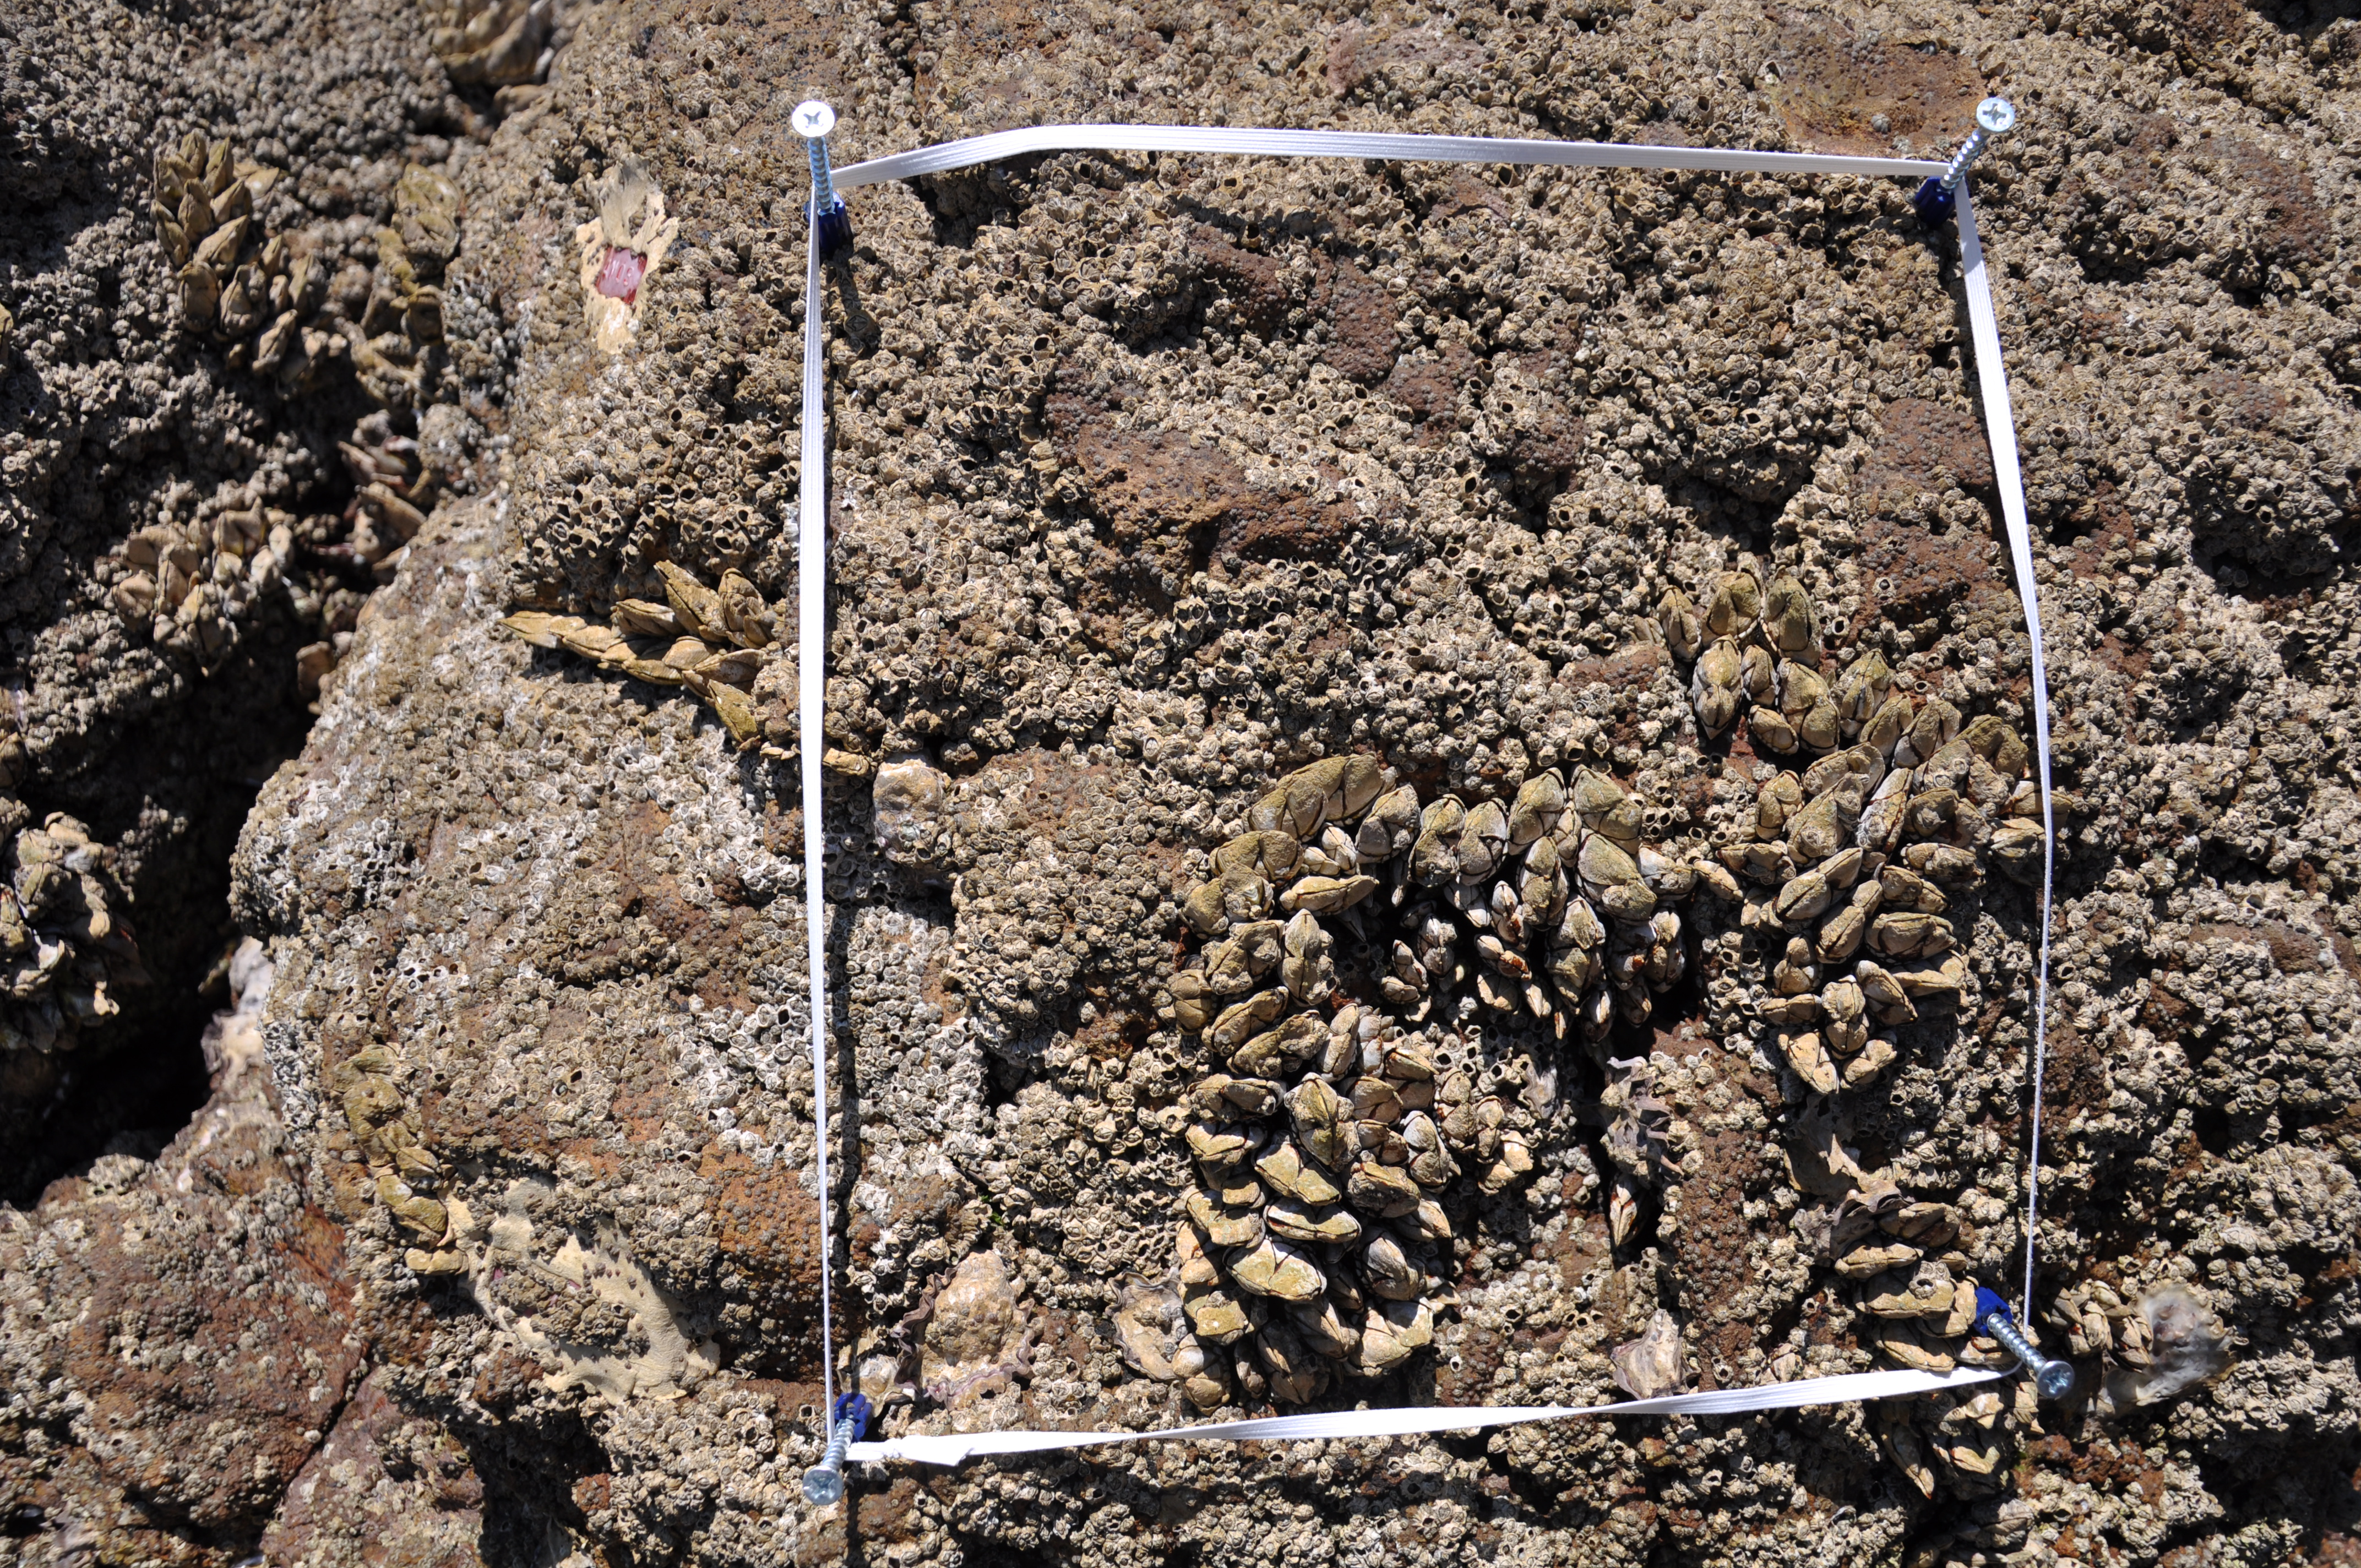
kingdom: Animalia
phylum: Arthropoda
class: Maxillopoda
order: Sessilia
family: Chthamalidae
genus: Chthamalus
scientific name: Chthamalus challengeri
